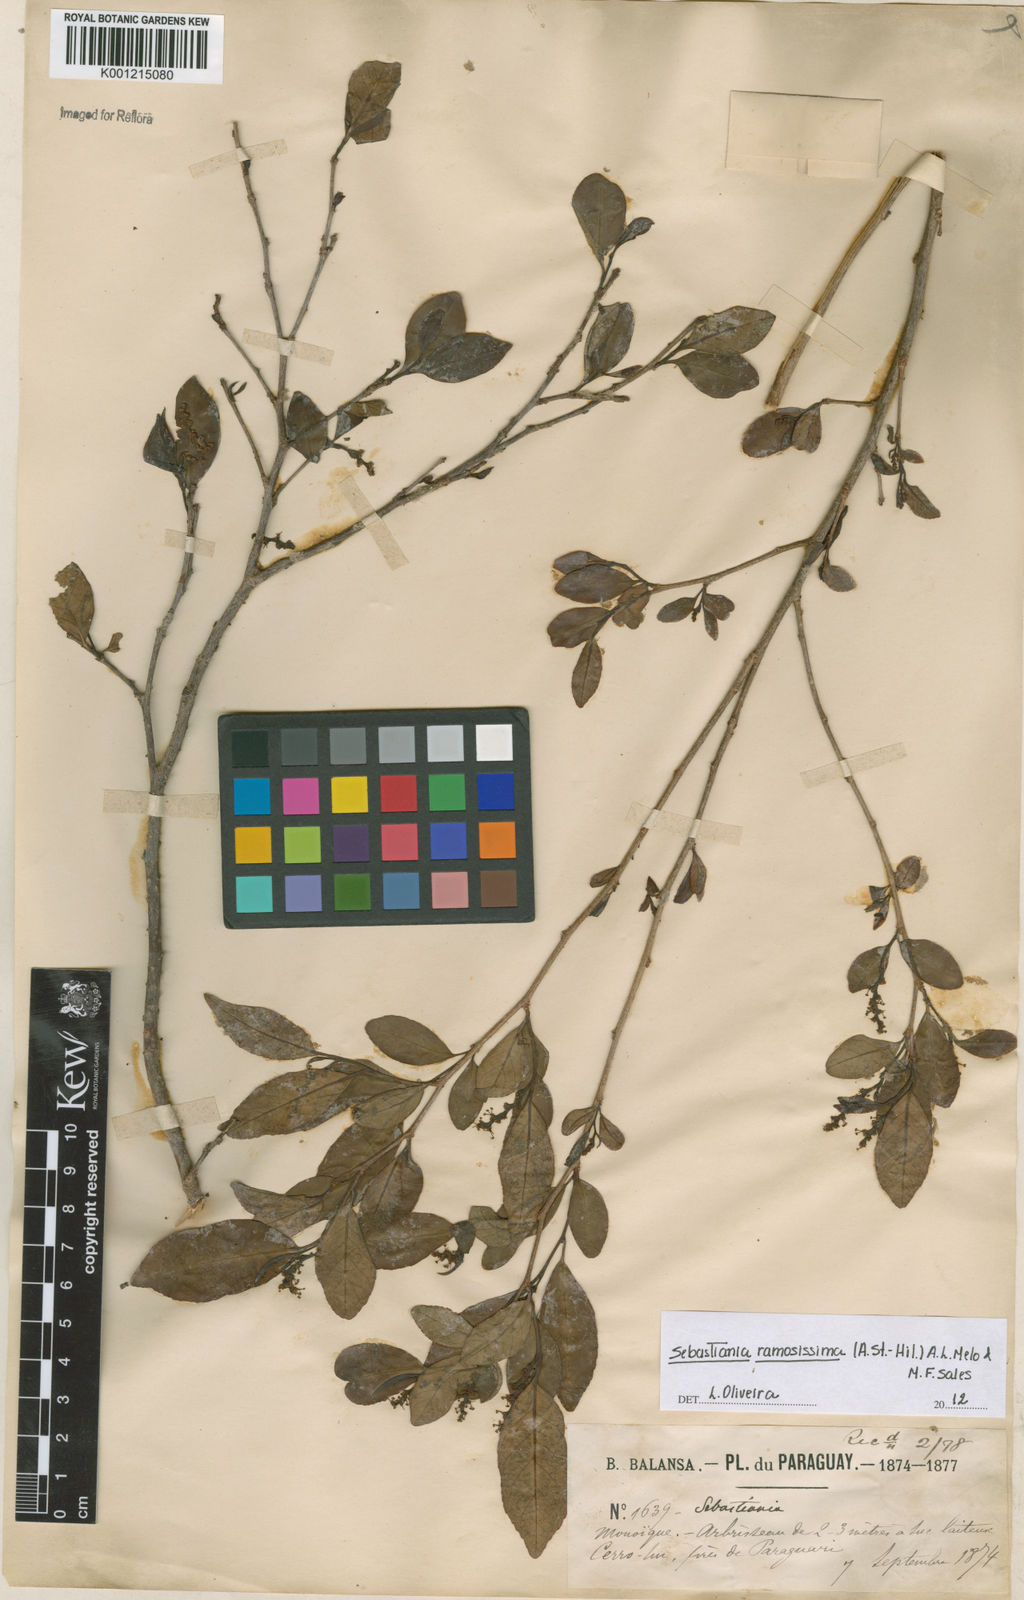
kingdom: Plantae
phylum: Tracheophyta
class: Magnoliopsida
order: Malpighiales
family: Euphorbiaceae
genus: Sebastiania
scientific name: Sebastiania
